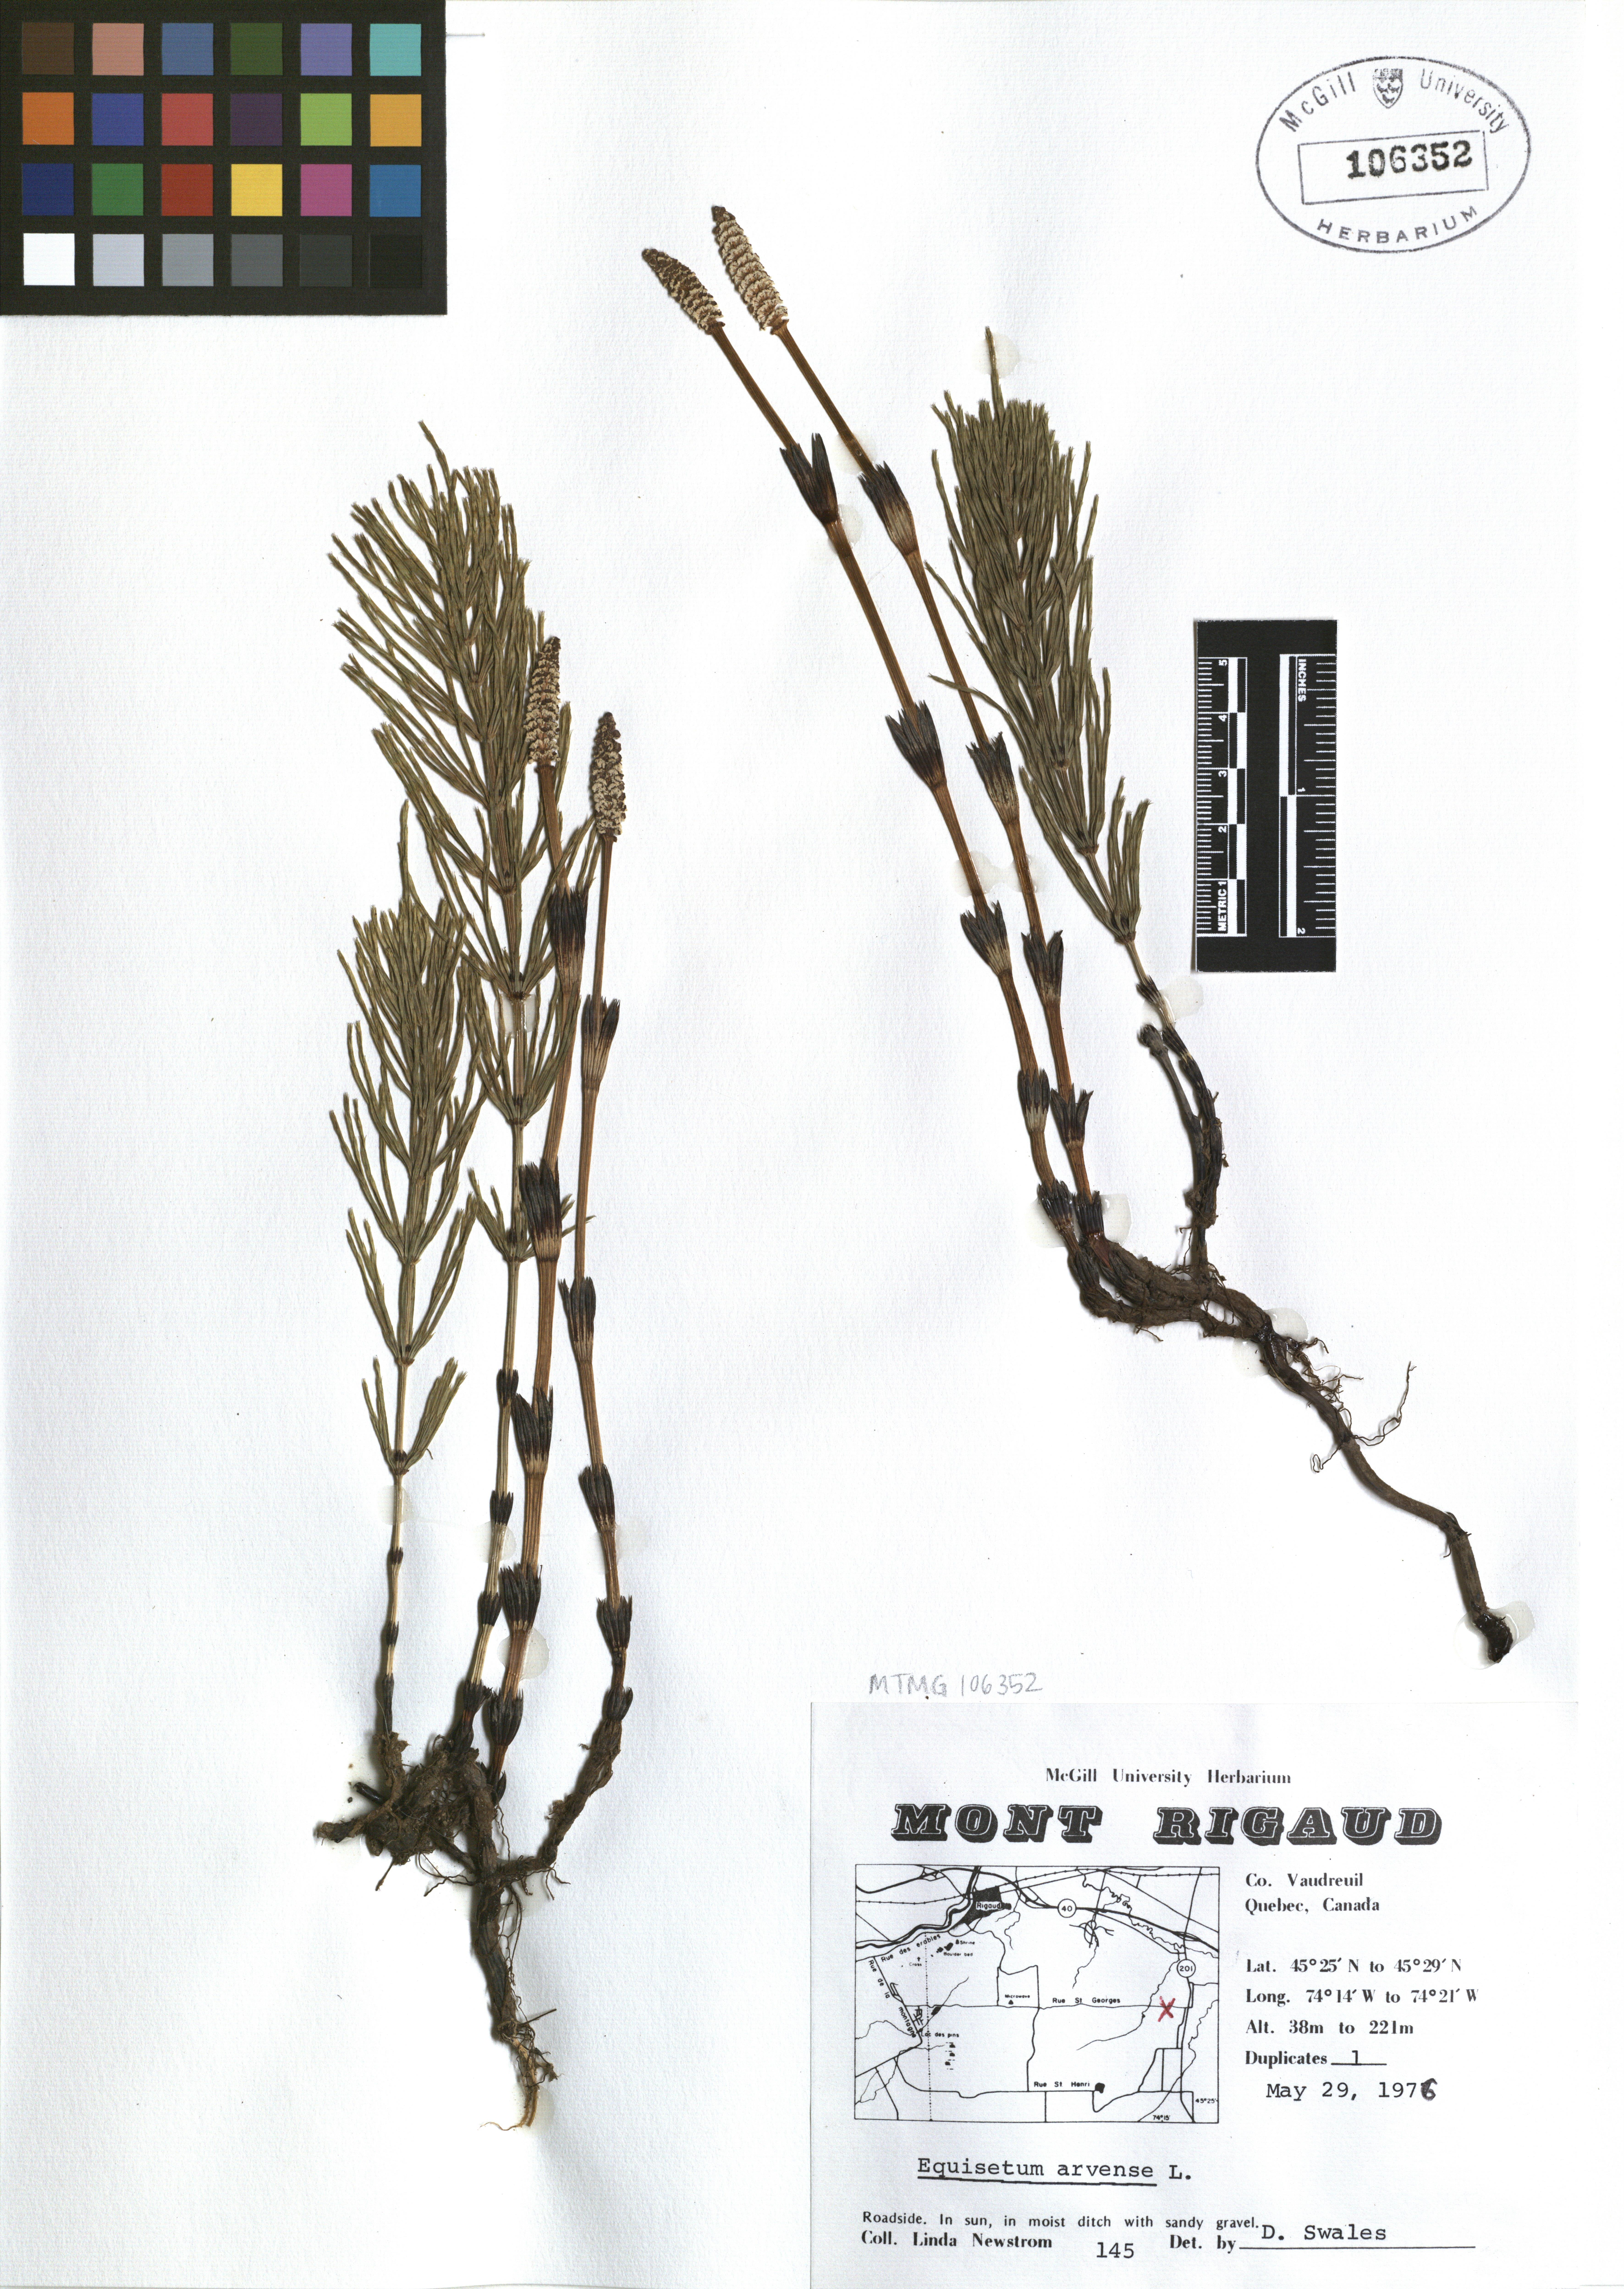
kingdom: Plantae
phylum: Tracheophyta
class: Polypodiopsida
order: Equisetales
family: Equisetaceae
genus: Equisetum
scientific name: Equisetum arvense
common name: Field horsetail
